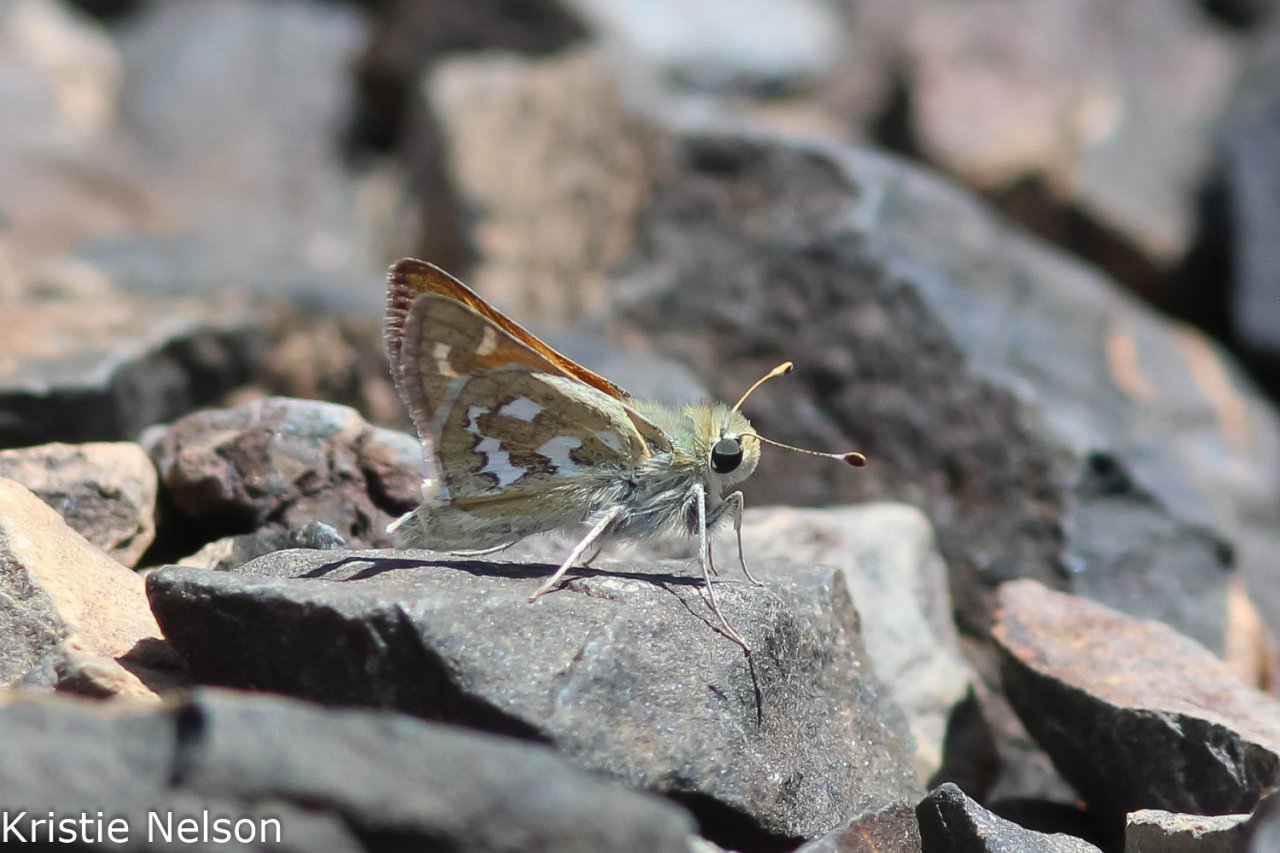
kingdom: Animalia
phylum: Arthropoda
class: Insecta
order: Lepidoptera
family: Hesperiidae
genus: Hesperia
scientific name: Hesperia comma
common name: Western Branded Skipper
